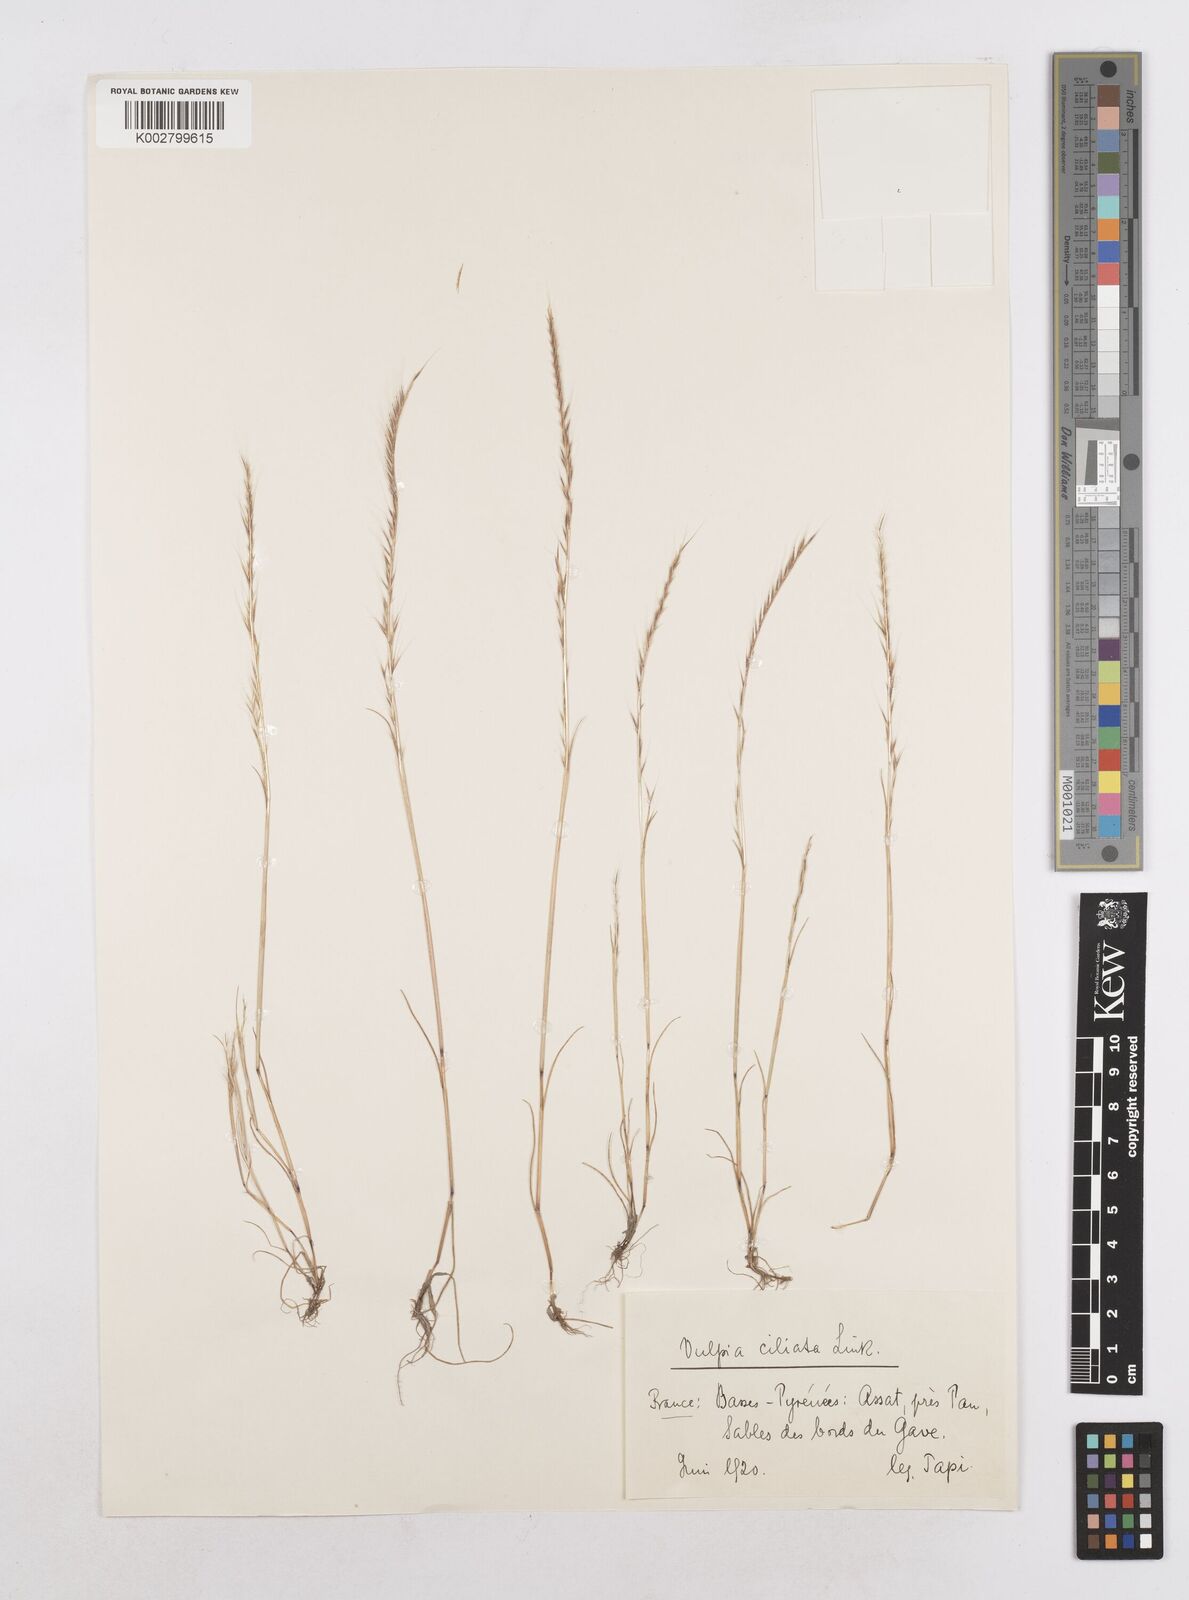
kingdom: Plantae
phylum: Tracheophyta
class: Liliopsida
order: Poales
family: Poaceae
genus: Festuca
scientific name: Festuca
